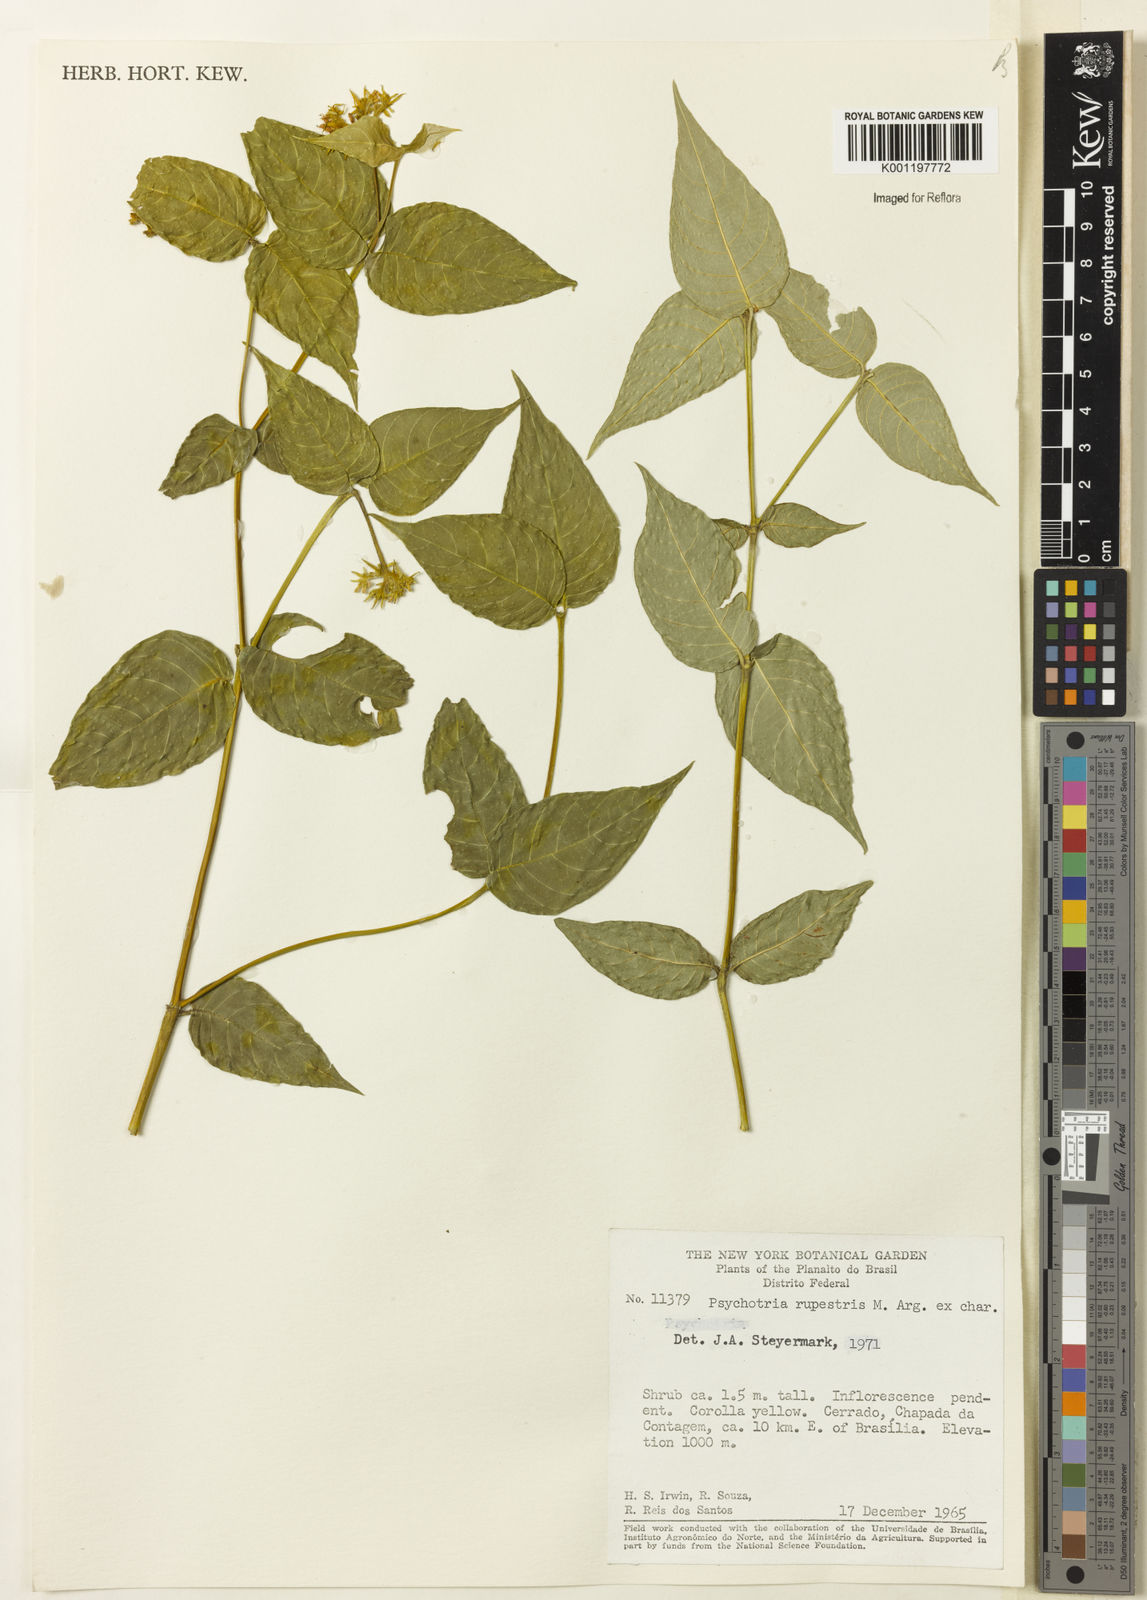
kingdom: Plantae
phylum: Tracheophyta
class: Magnoliopsida
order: Gentianales
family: Rubiaceae
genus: Psychotria
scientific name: Psychotria
